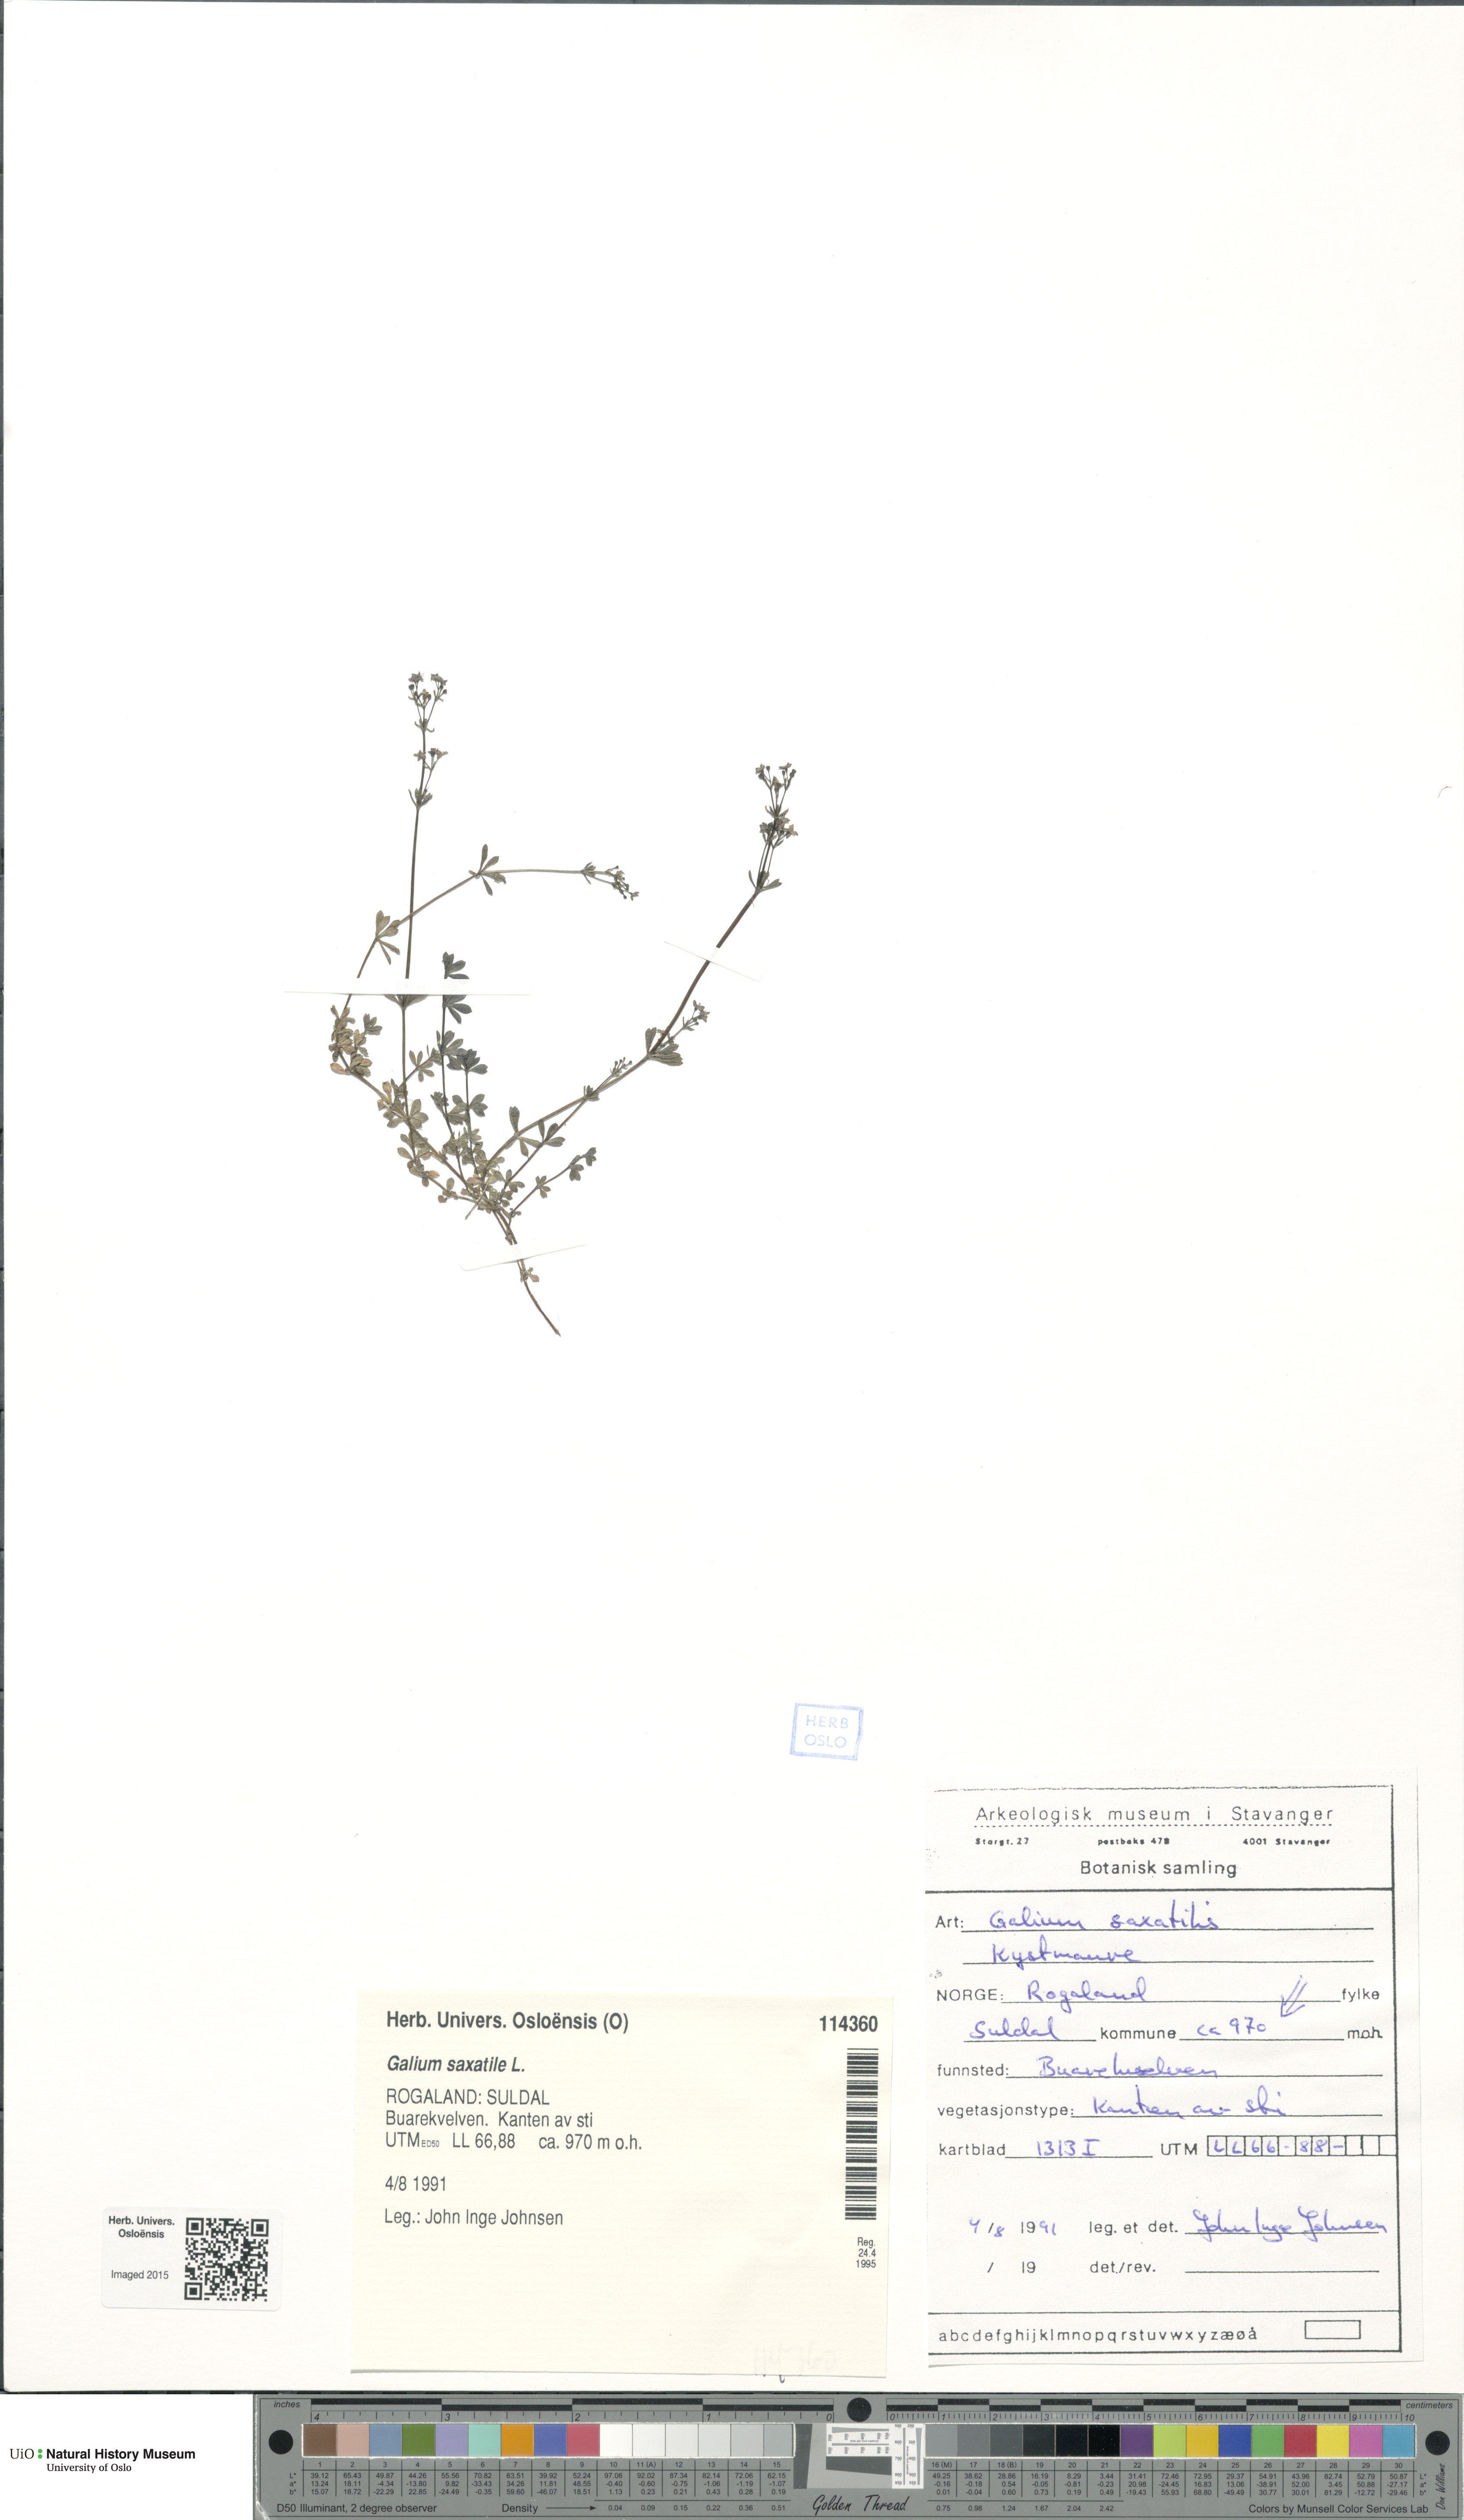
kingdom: Plantae
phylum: Tracheophyta
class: Magnoliopsida
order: Gentianales
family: Rubiaceae
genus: Galium
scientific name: Galium saxatile
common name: Heath bedstraw
